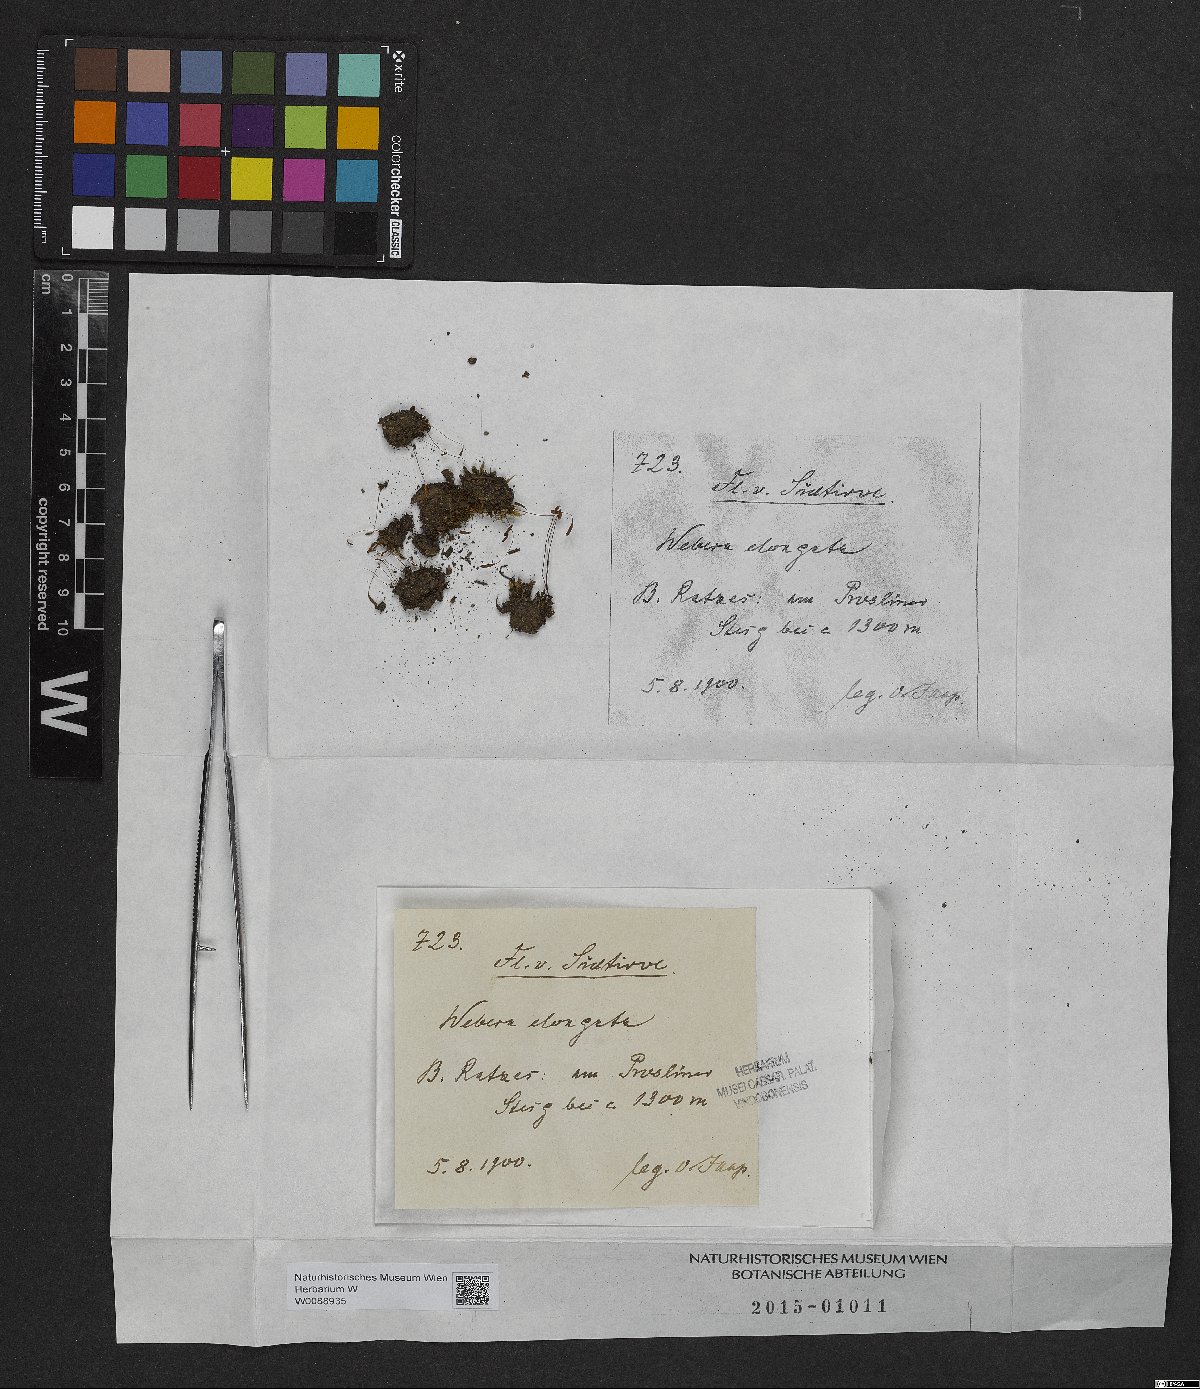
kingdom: Plantae
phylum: Bryophyta
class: Bryopsida
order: Bryales
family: Mniaceae
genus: Pohlia
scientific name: Pohlia elongata
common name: Long-fruited thread-moss
